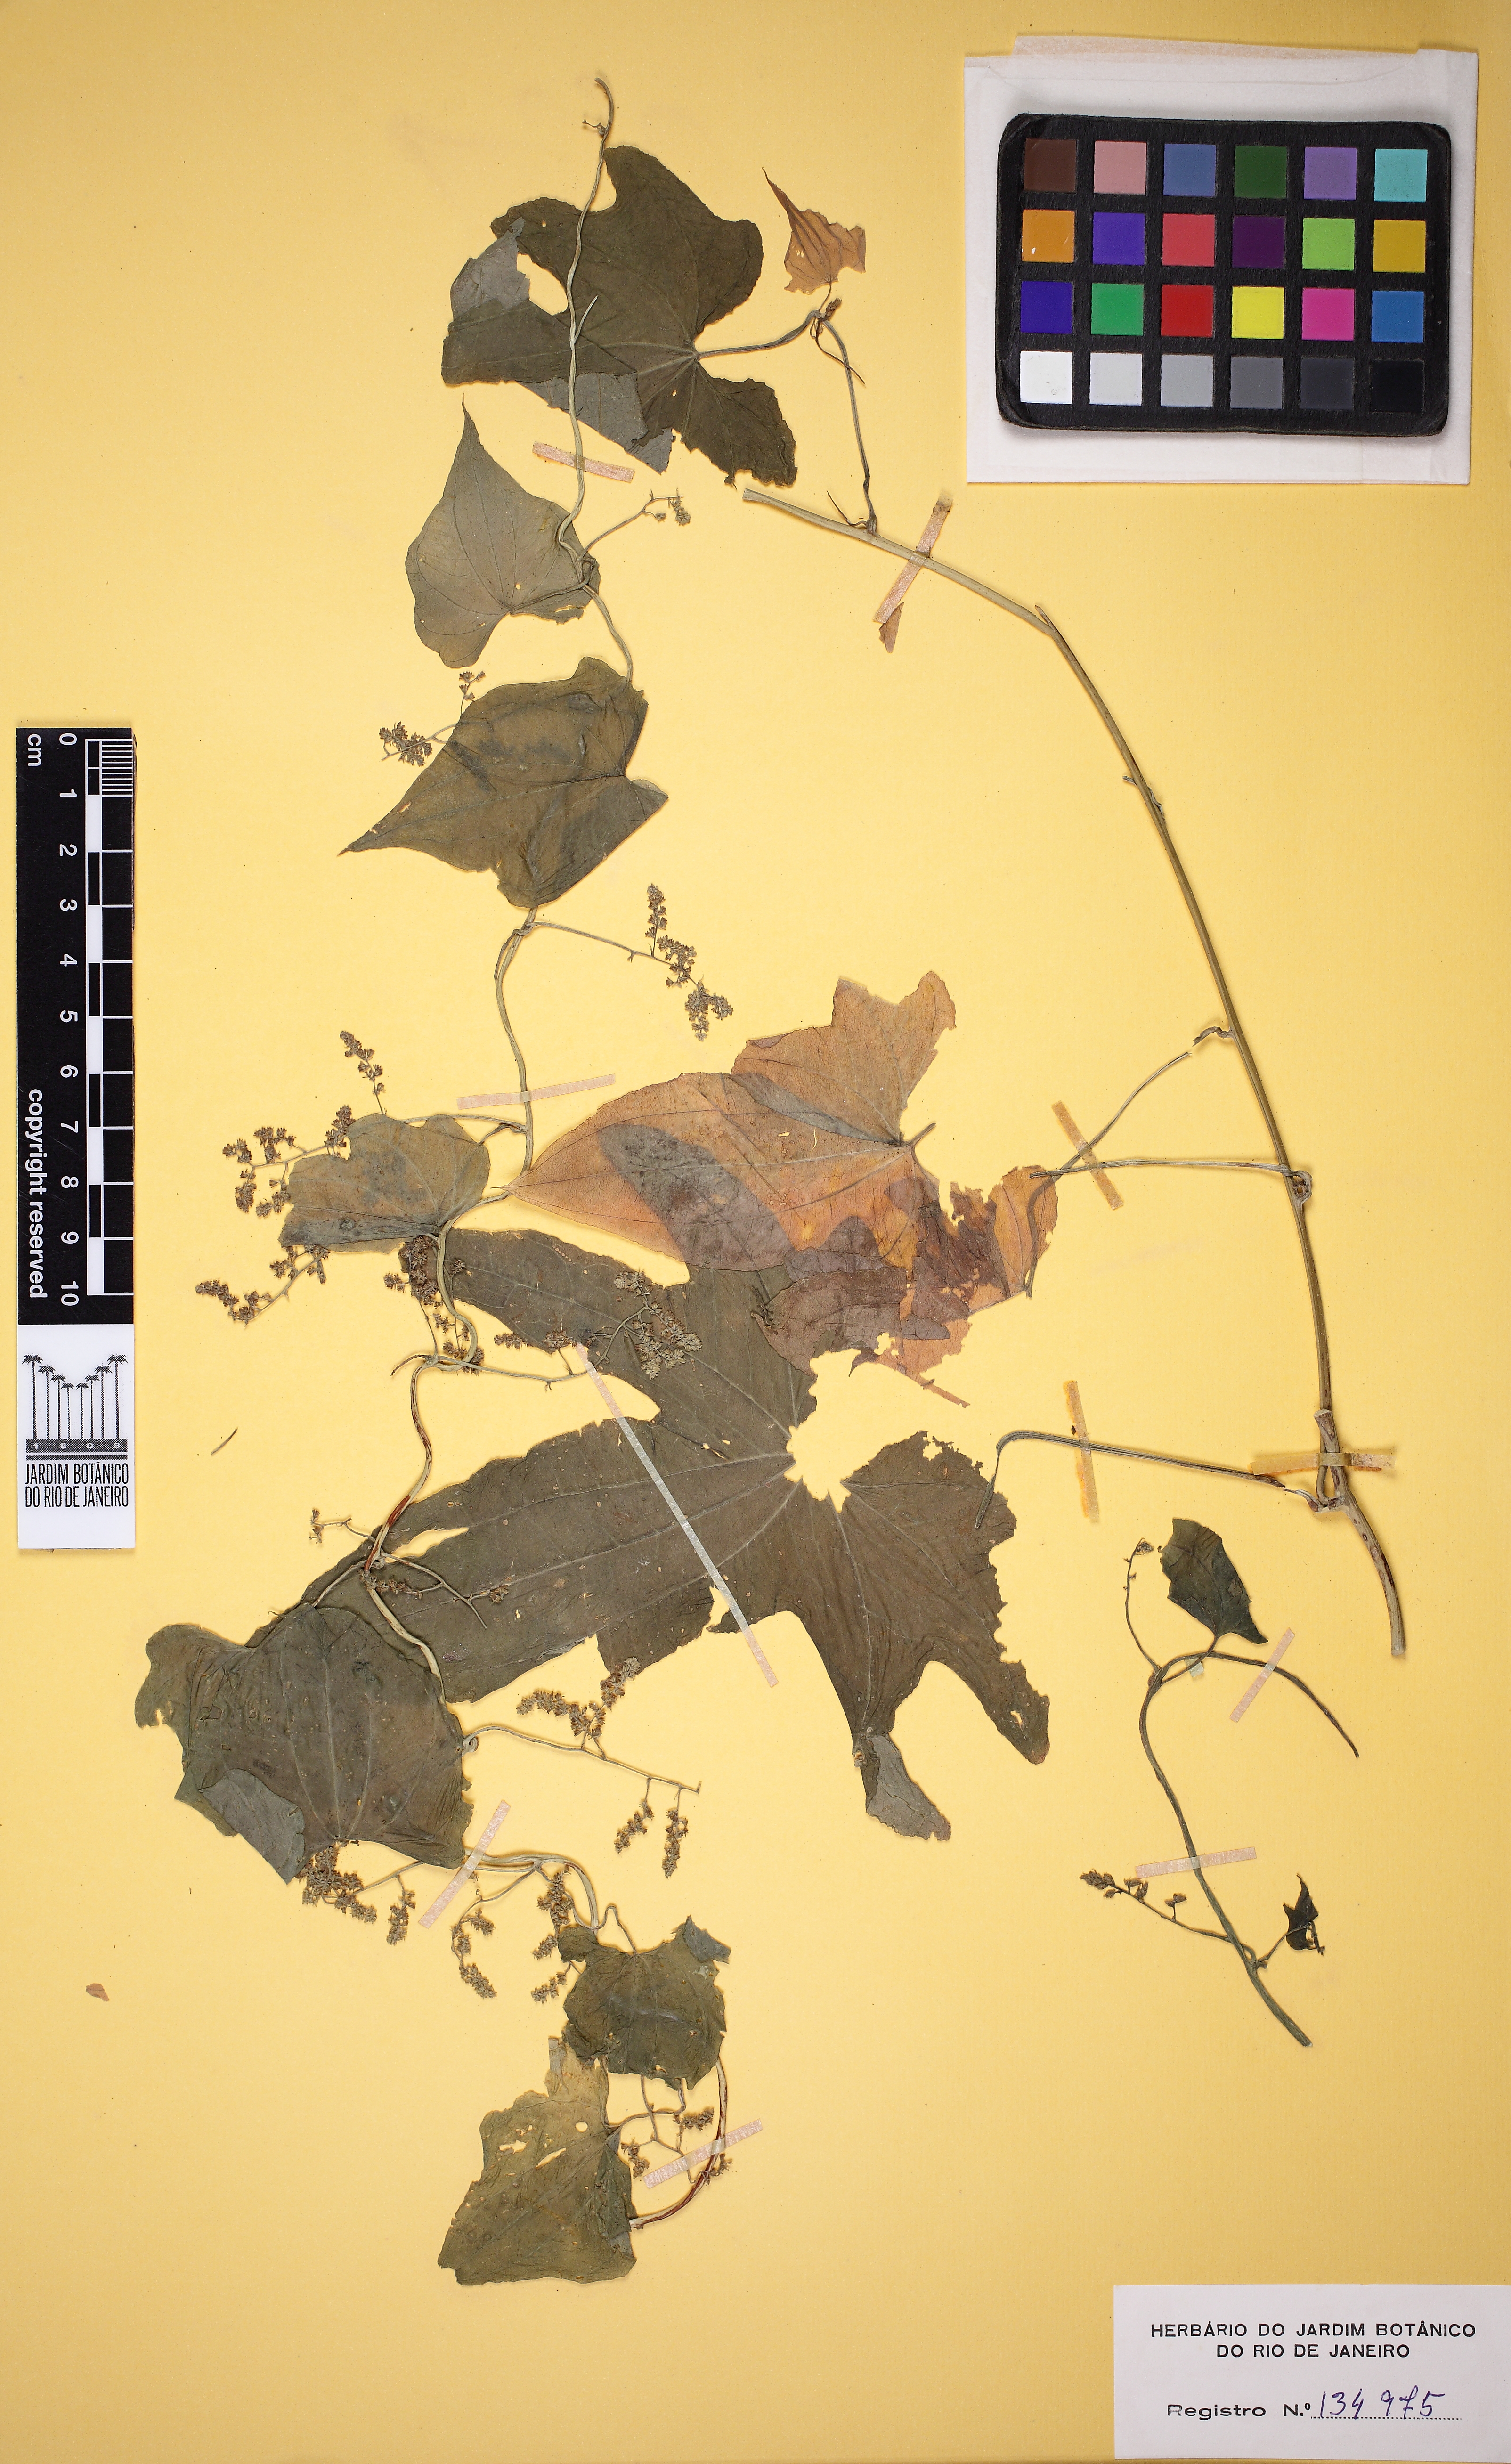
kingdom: Plantae
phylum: Tracheophyta
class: Liliopsida
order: Dioscoreales
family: Dioscoreaceae
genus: Dioscorea
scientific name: Dioscorea sinuata
